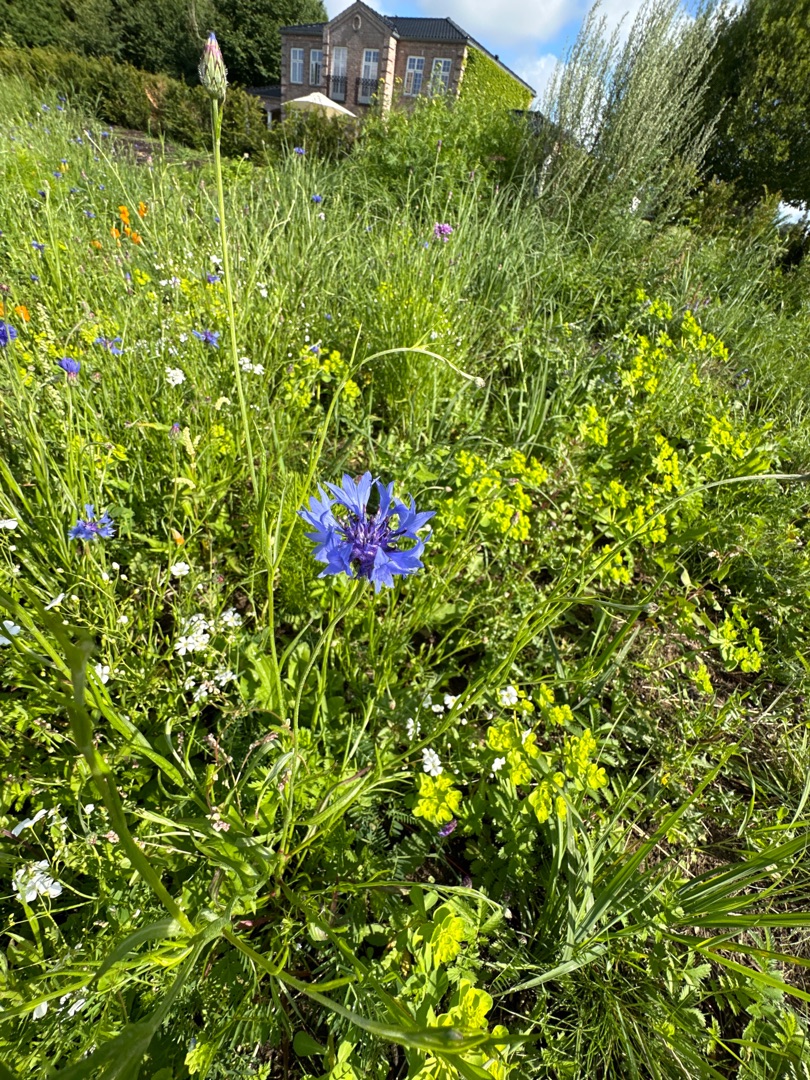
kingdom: Plantae
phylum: Tracheophyta
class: Magnoliopsida
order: Asterales
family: Asteraceae
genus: Centaurea
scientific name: Centaurea cyanus
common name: Kornblomst
